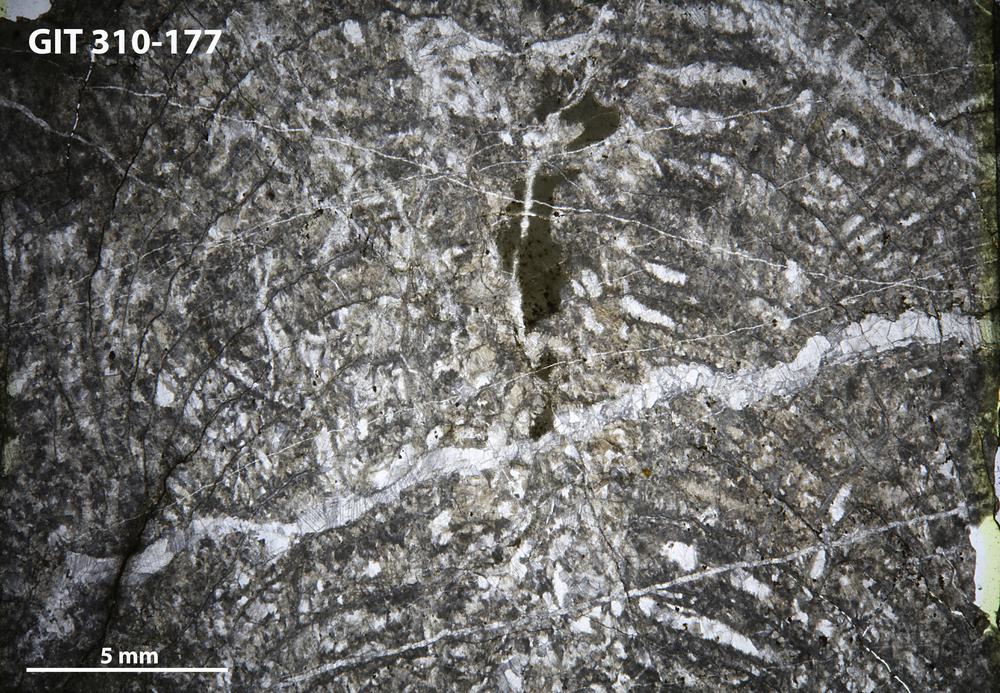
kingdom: Animalia
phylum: Porifera
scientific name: Porifera
